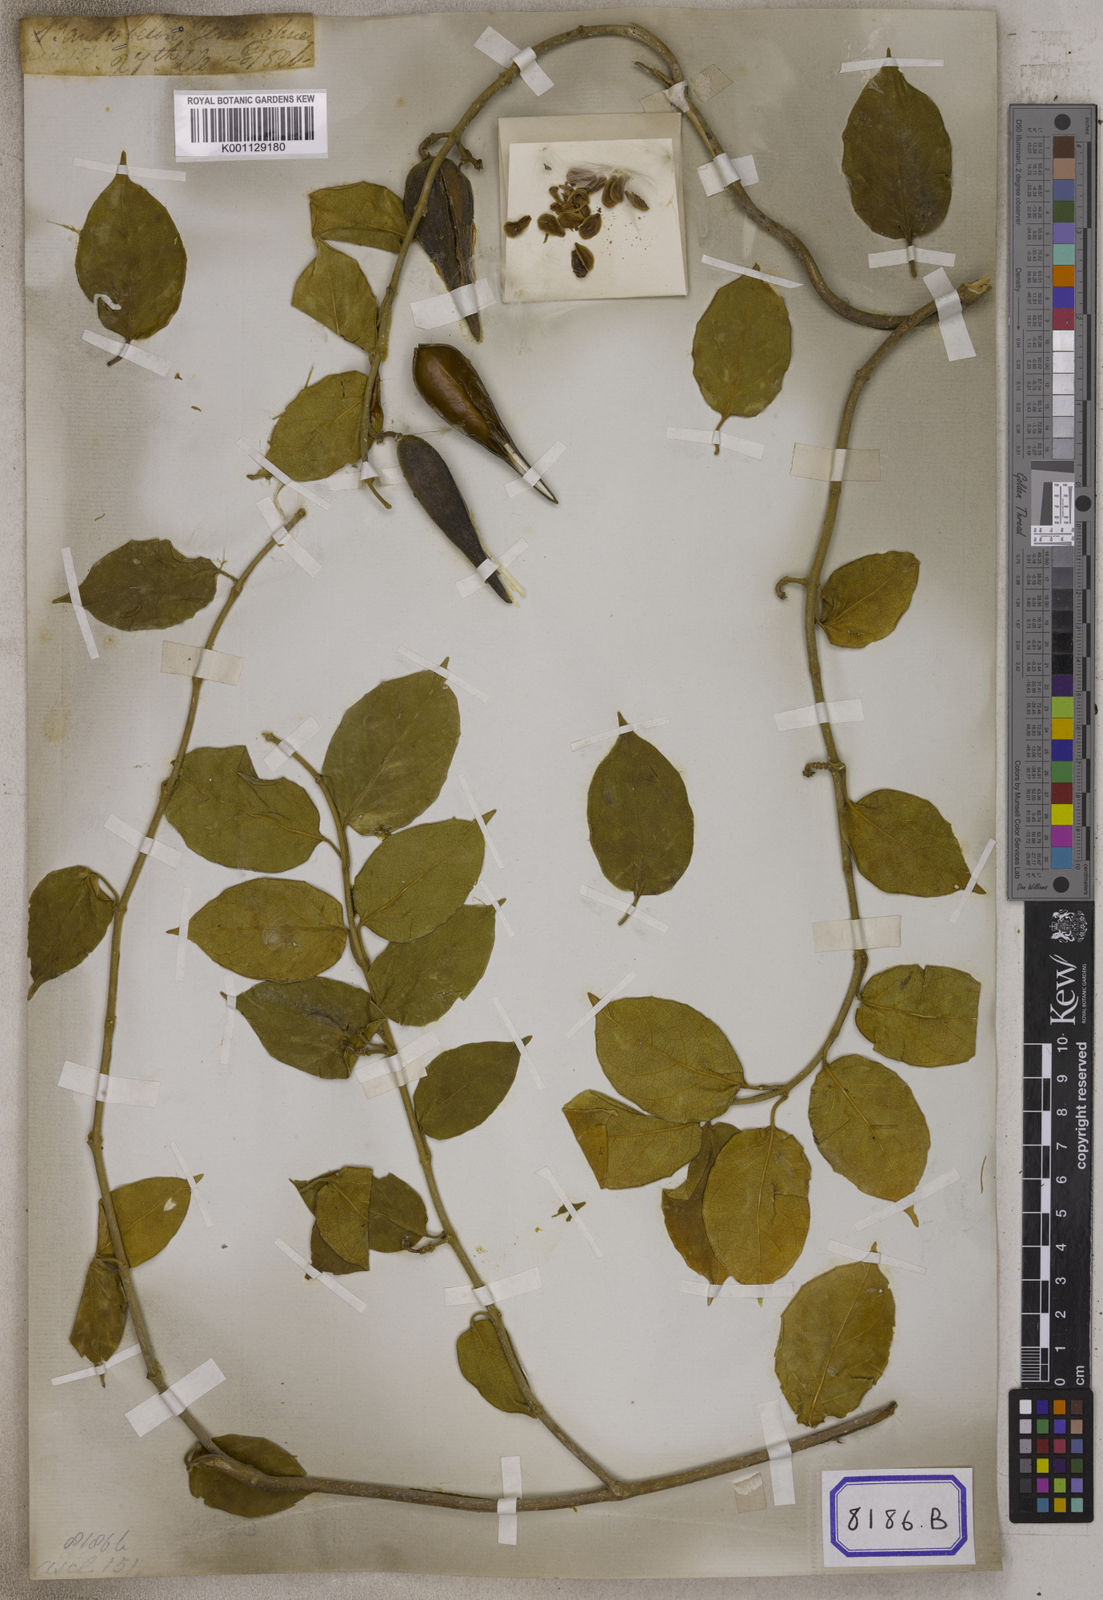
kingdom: Plantae
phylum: Tracheophyta
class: Magnoliopsida
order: Gentianales
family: Apocynaceae
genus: Gymnema
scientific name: Gymnema molle
